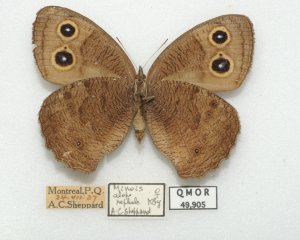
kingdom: Animalia
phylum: Arthropoda
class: Insecta
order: Lepidoptera
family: Nymphalidae
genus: Cercyonis
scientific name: Cercyonis pegala
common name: Common Wood-Nymph
